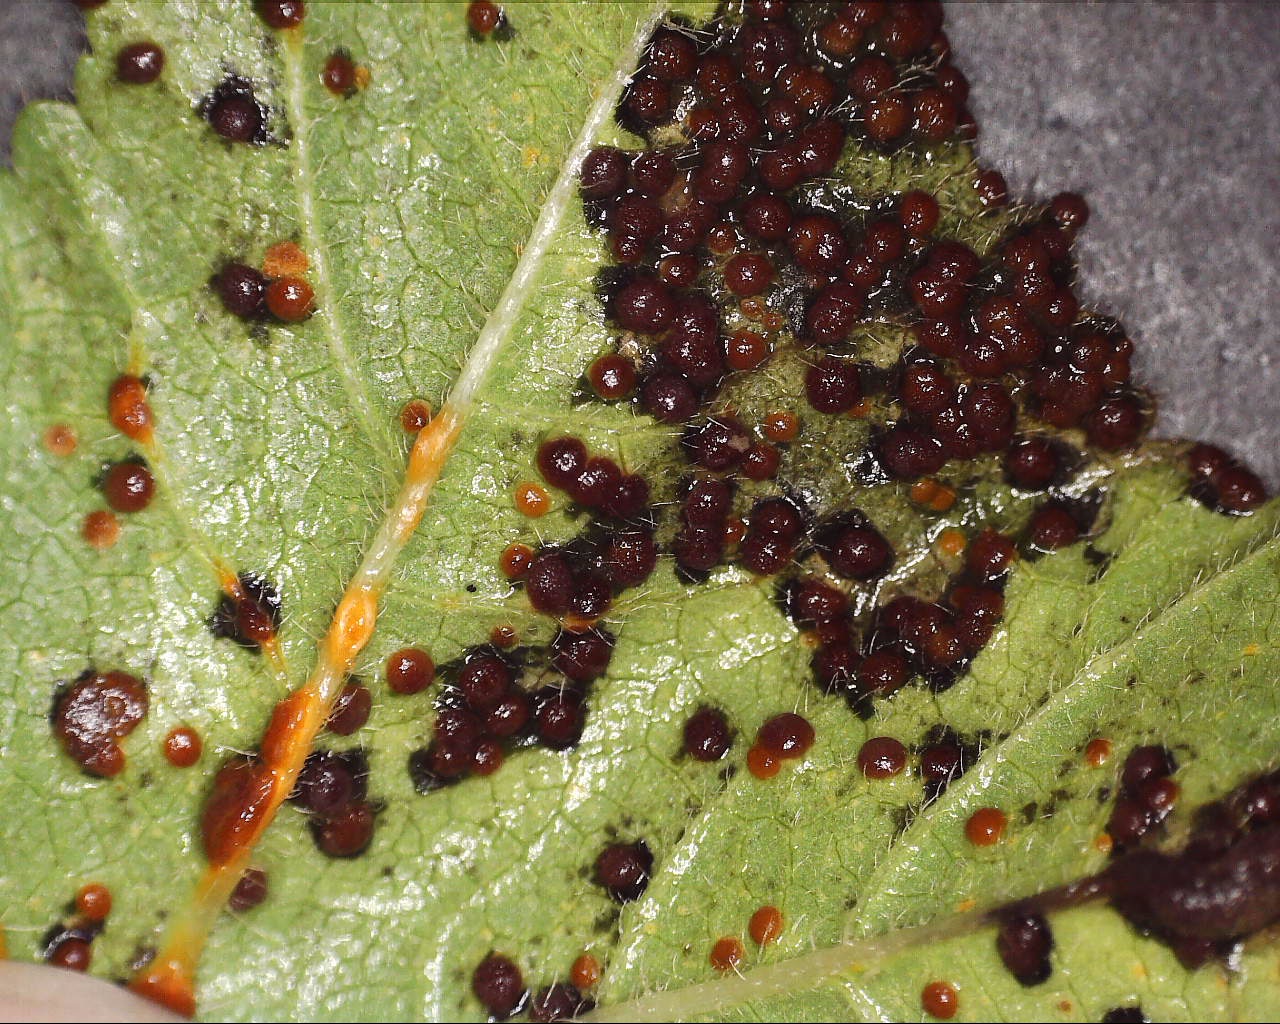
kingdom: Fungi
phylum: Basidiomycota
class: Pucciniomycetes
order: Pucciniales
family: Pucciniaceae
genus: Puccinia
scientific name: Puccinia malvacearum
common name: stokrose-tvecellerust
